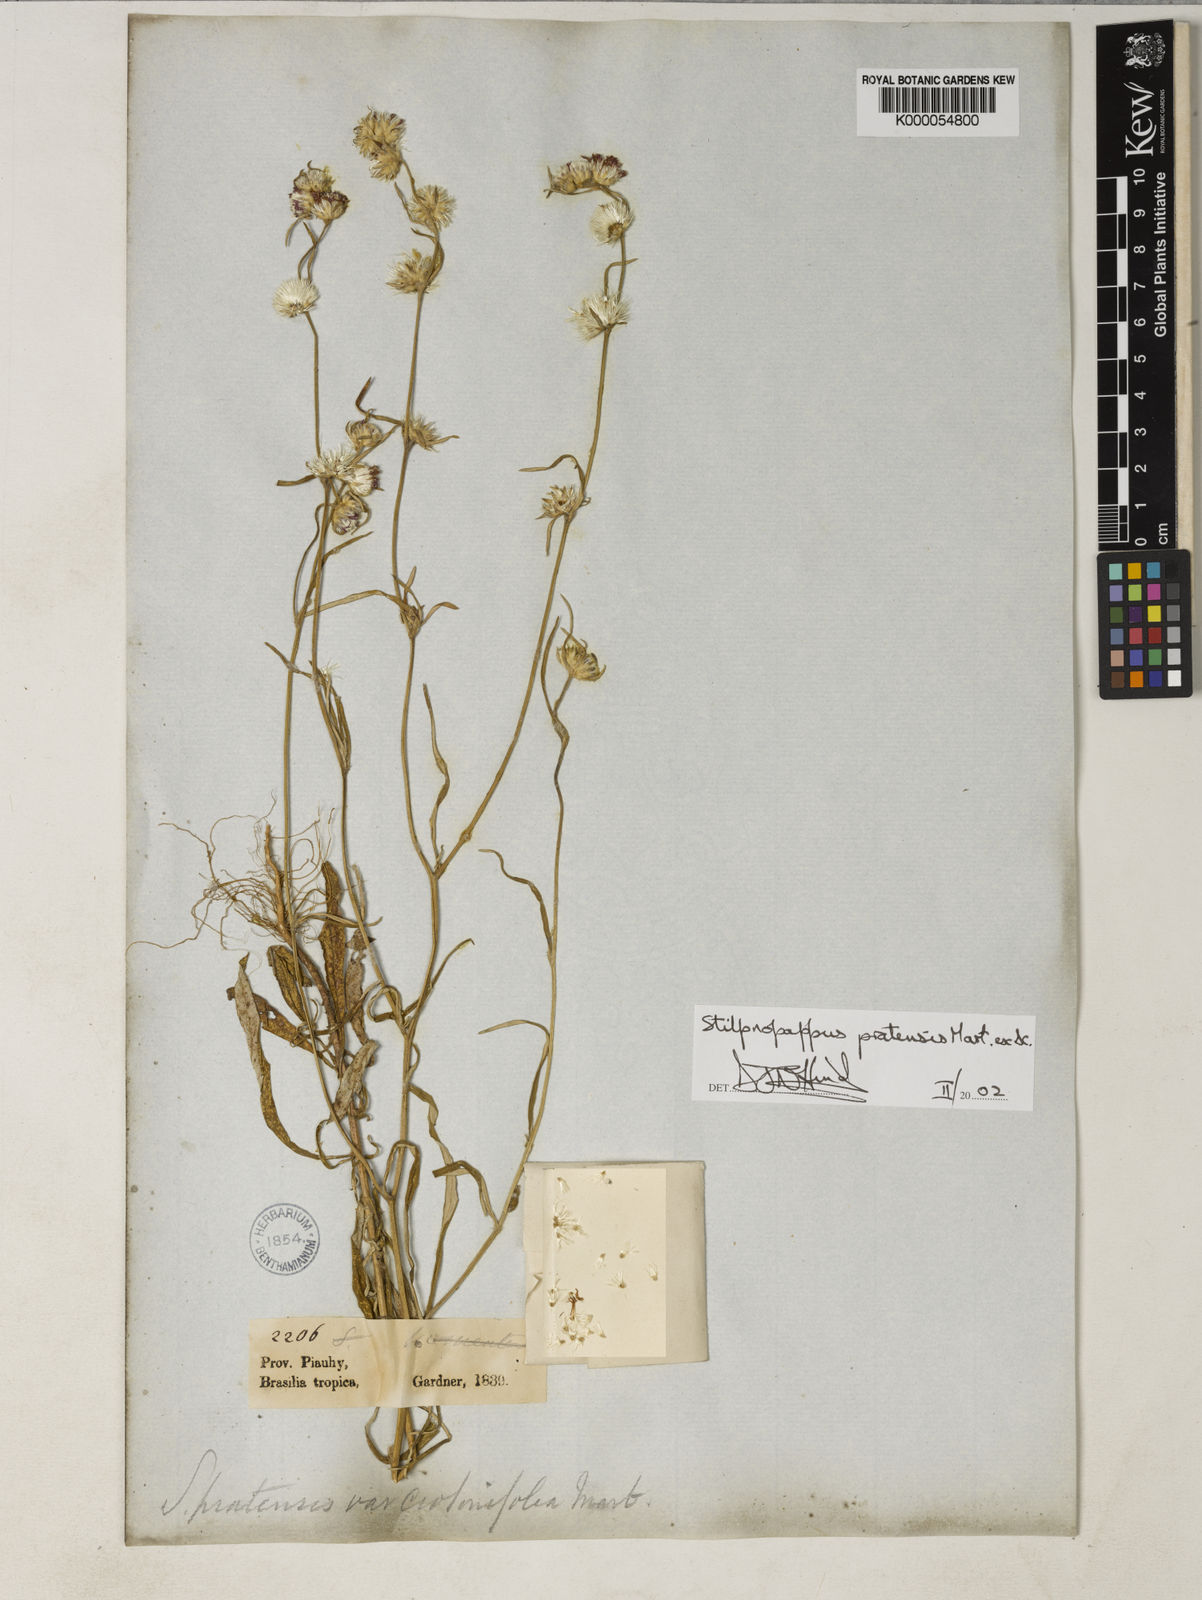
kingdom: Plantae
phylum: Tracheophyta
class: Magnoliopsida
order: Asterales
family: Asteraceae
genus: Stilpnopappus
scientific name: Stilpnopappus pratensis
